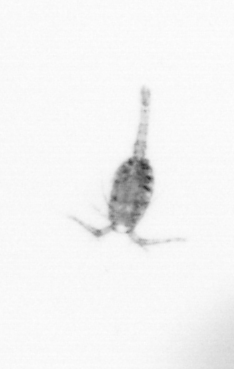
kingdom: Animalia
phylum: Arthropoda
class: Copepoda
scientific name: Copepoda
